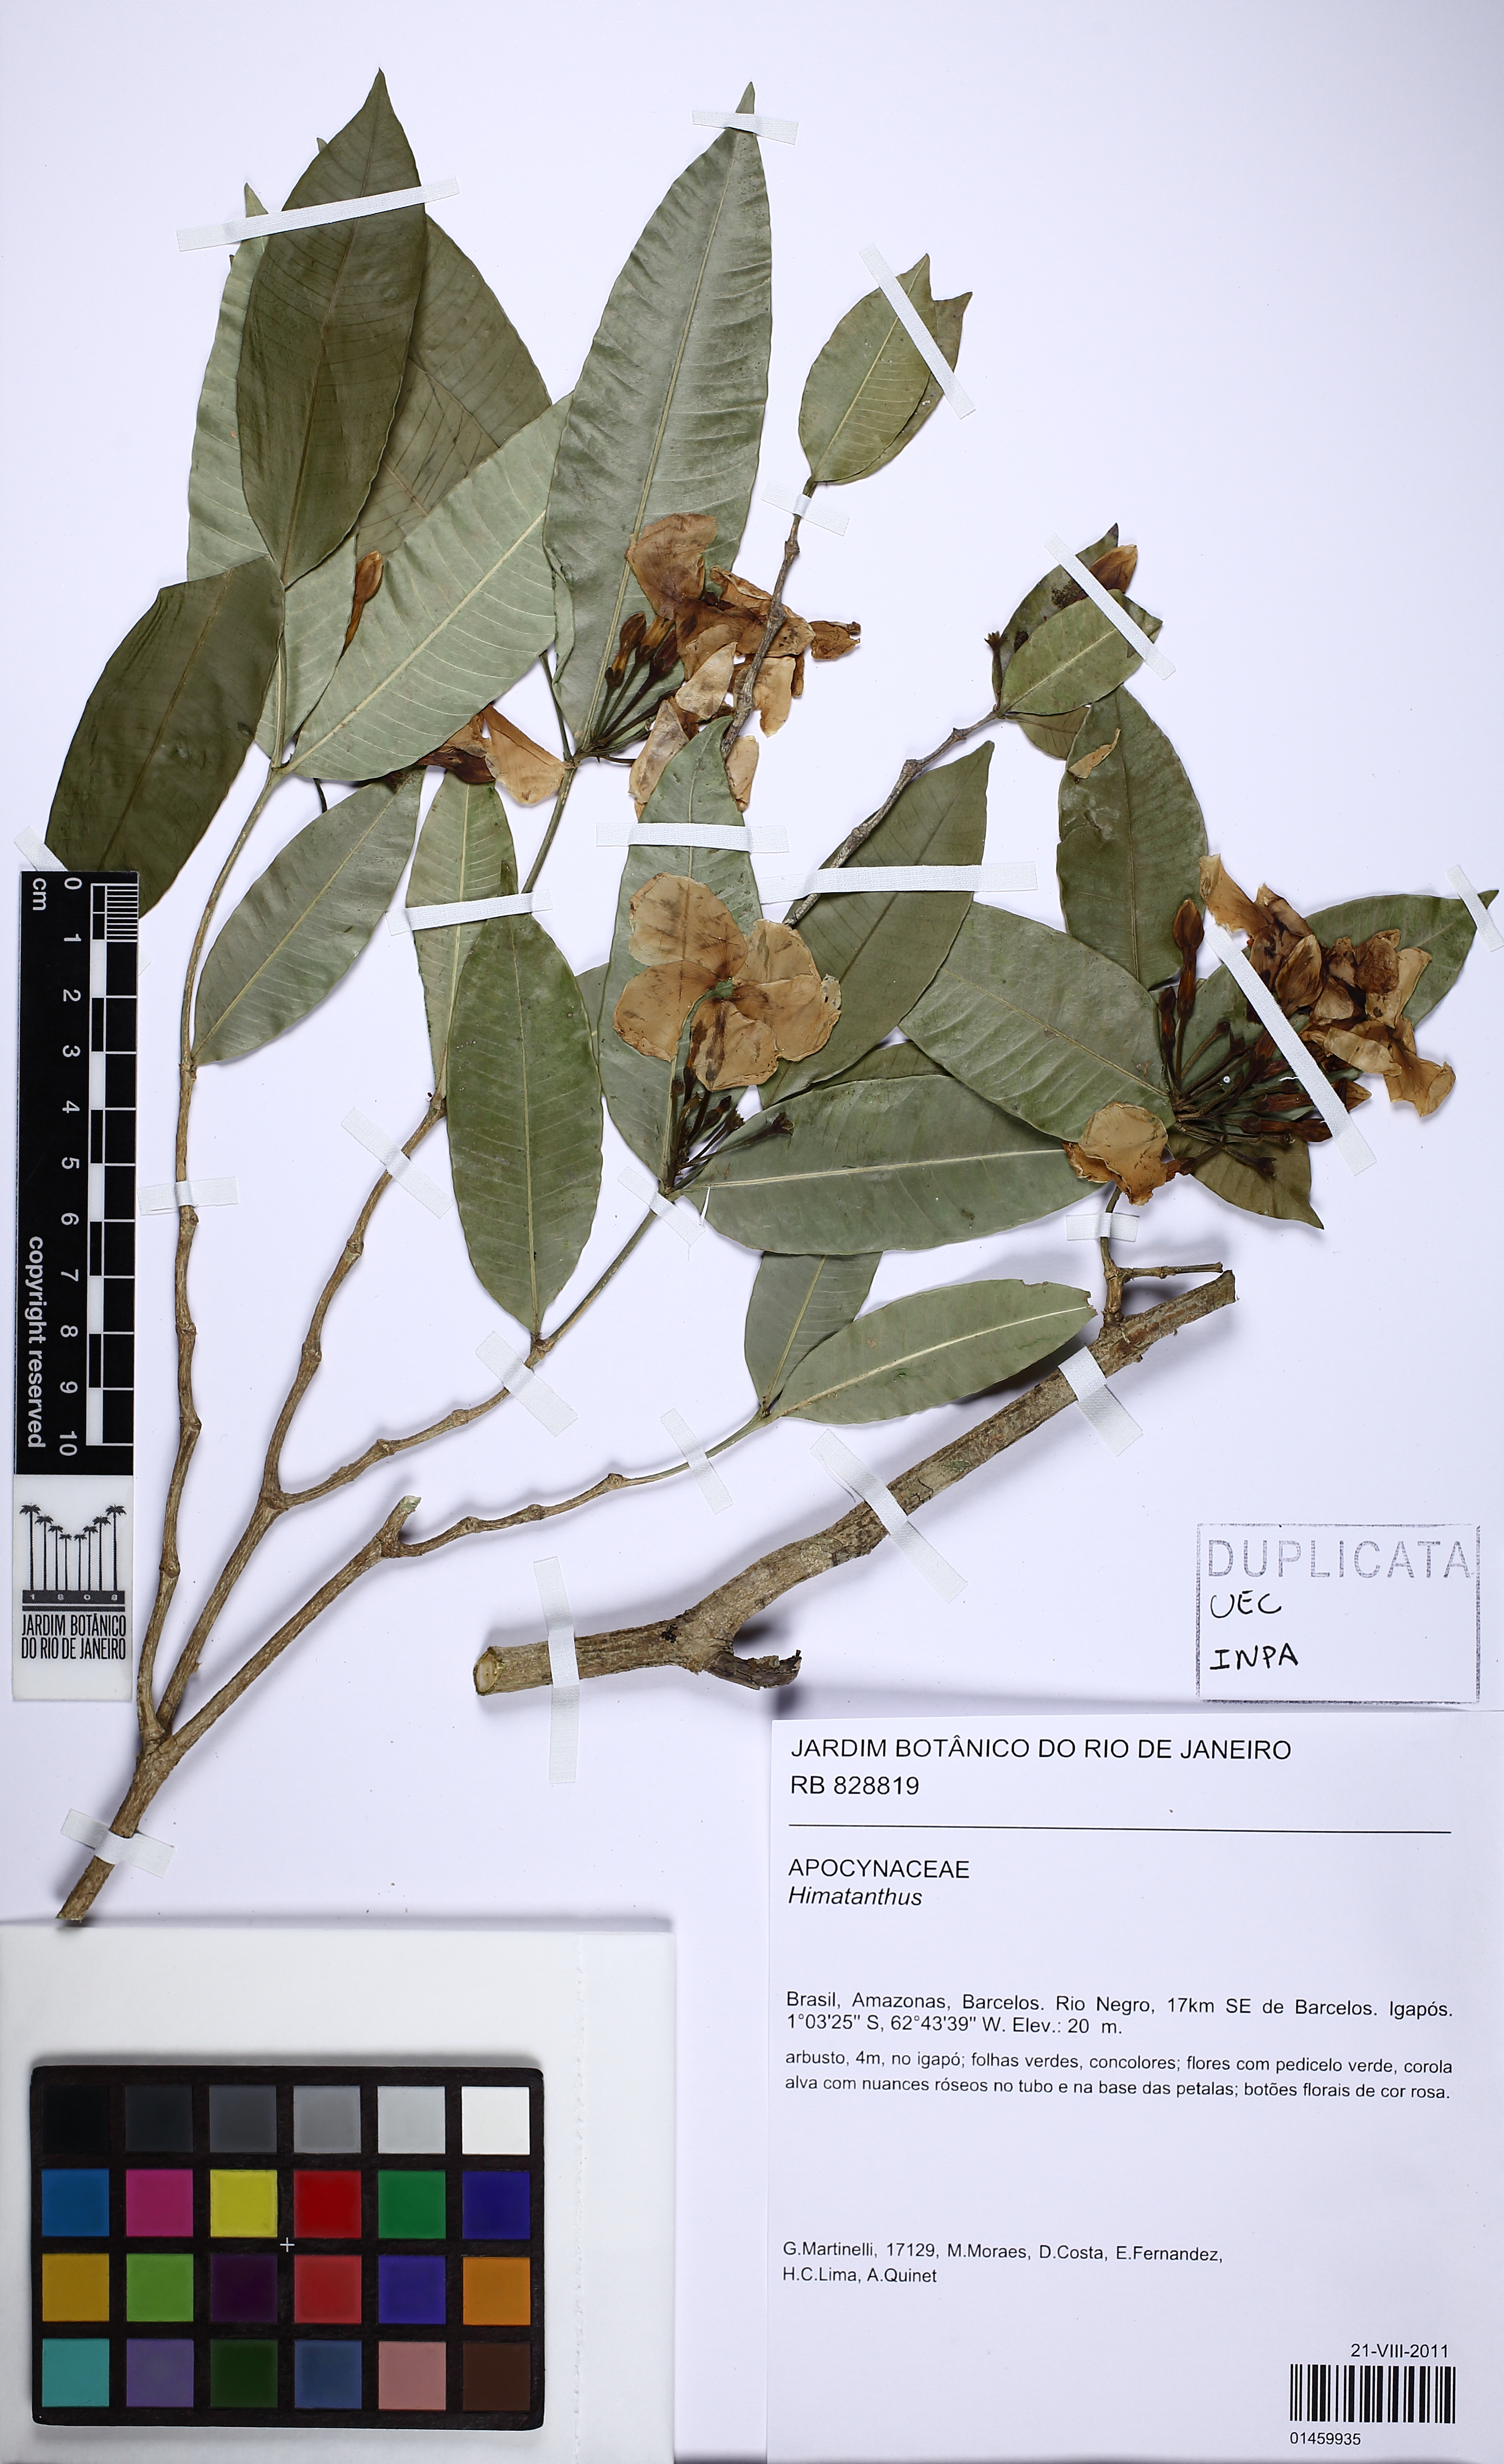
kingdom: Plantae
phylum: Tracheophyta
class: Magnoliopsida
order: Gentianales
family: Apocynaceae
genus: Himatanthus
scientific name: Himatanthus
